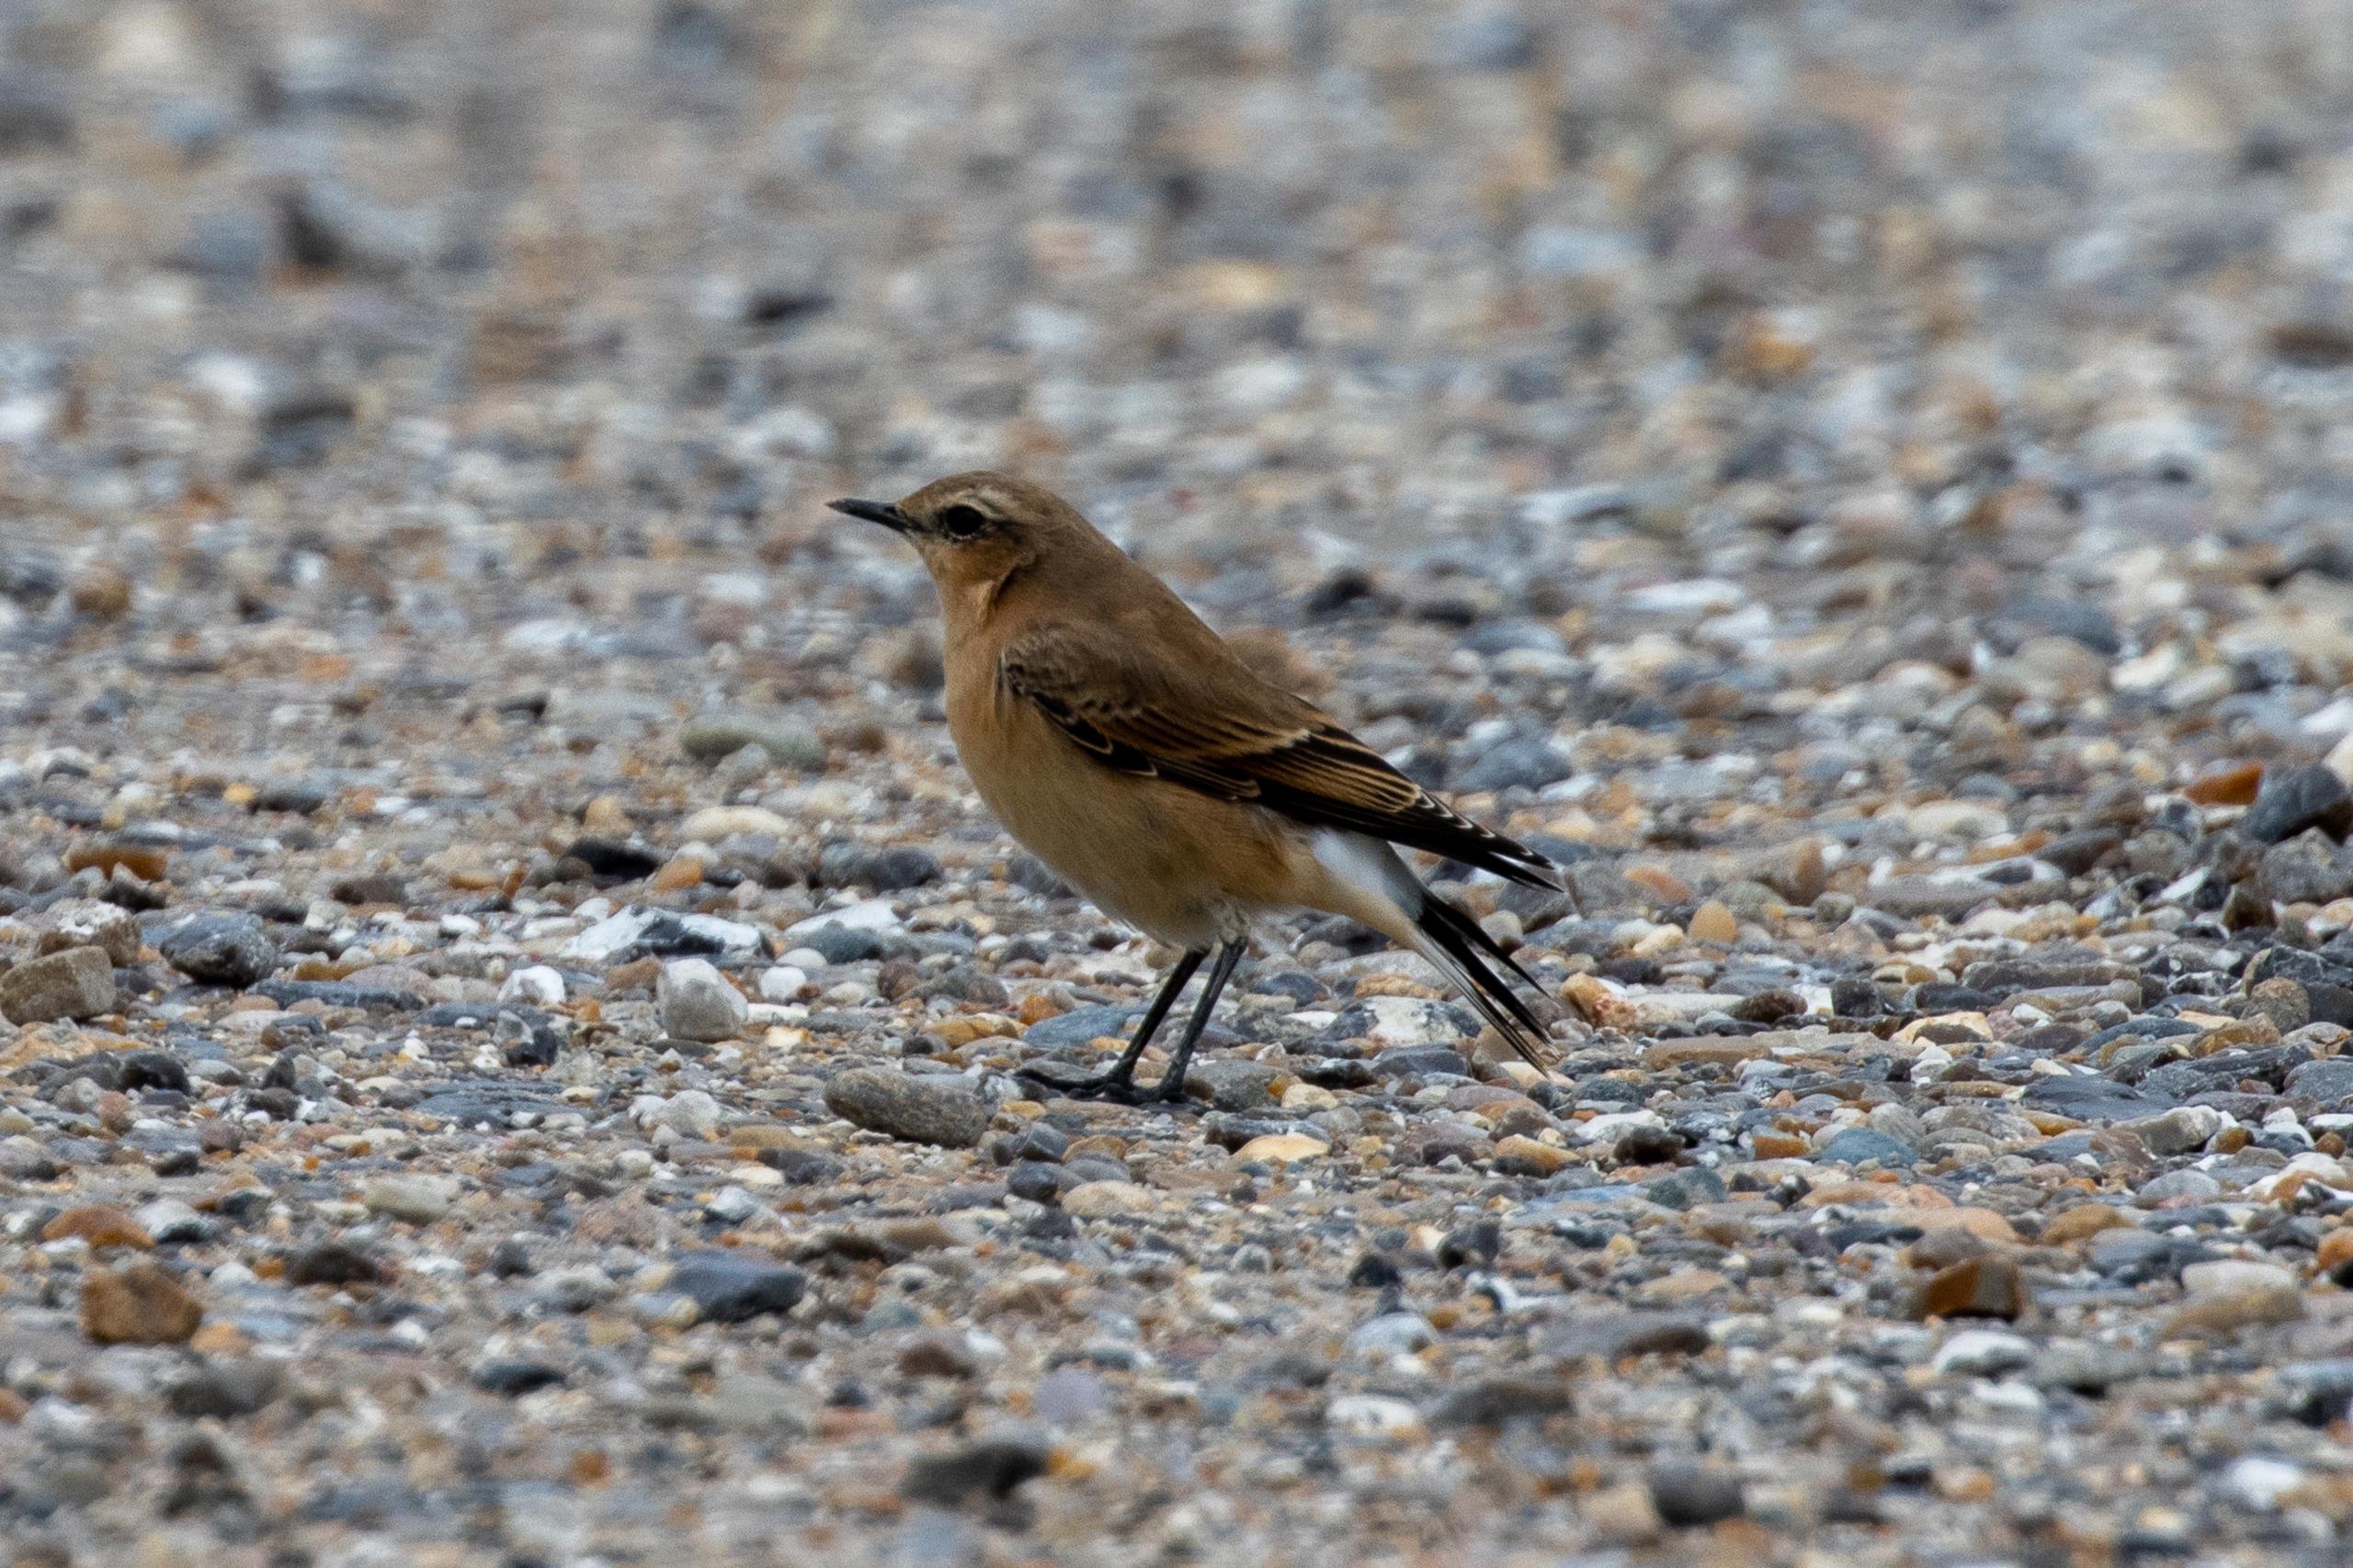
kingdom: Animalia
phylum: Chordata
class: Aves
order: Passeriformes
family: Muscicapidae
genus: Oenanthe
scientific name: Oenanthe oenanthe
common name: Stenpikker
